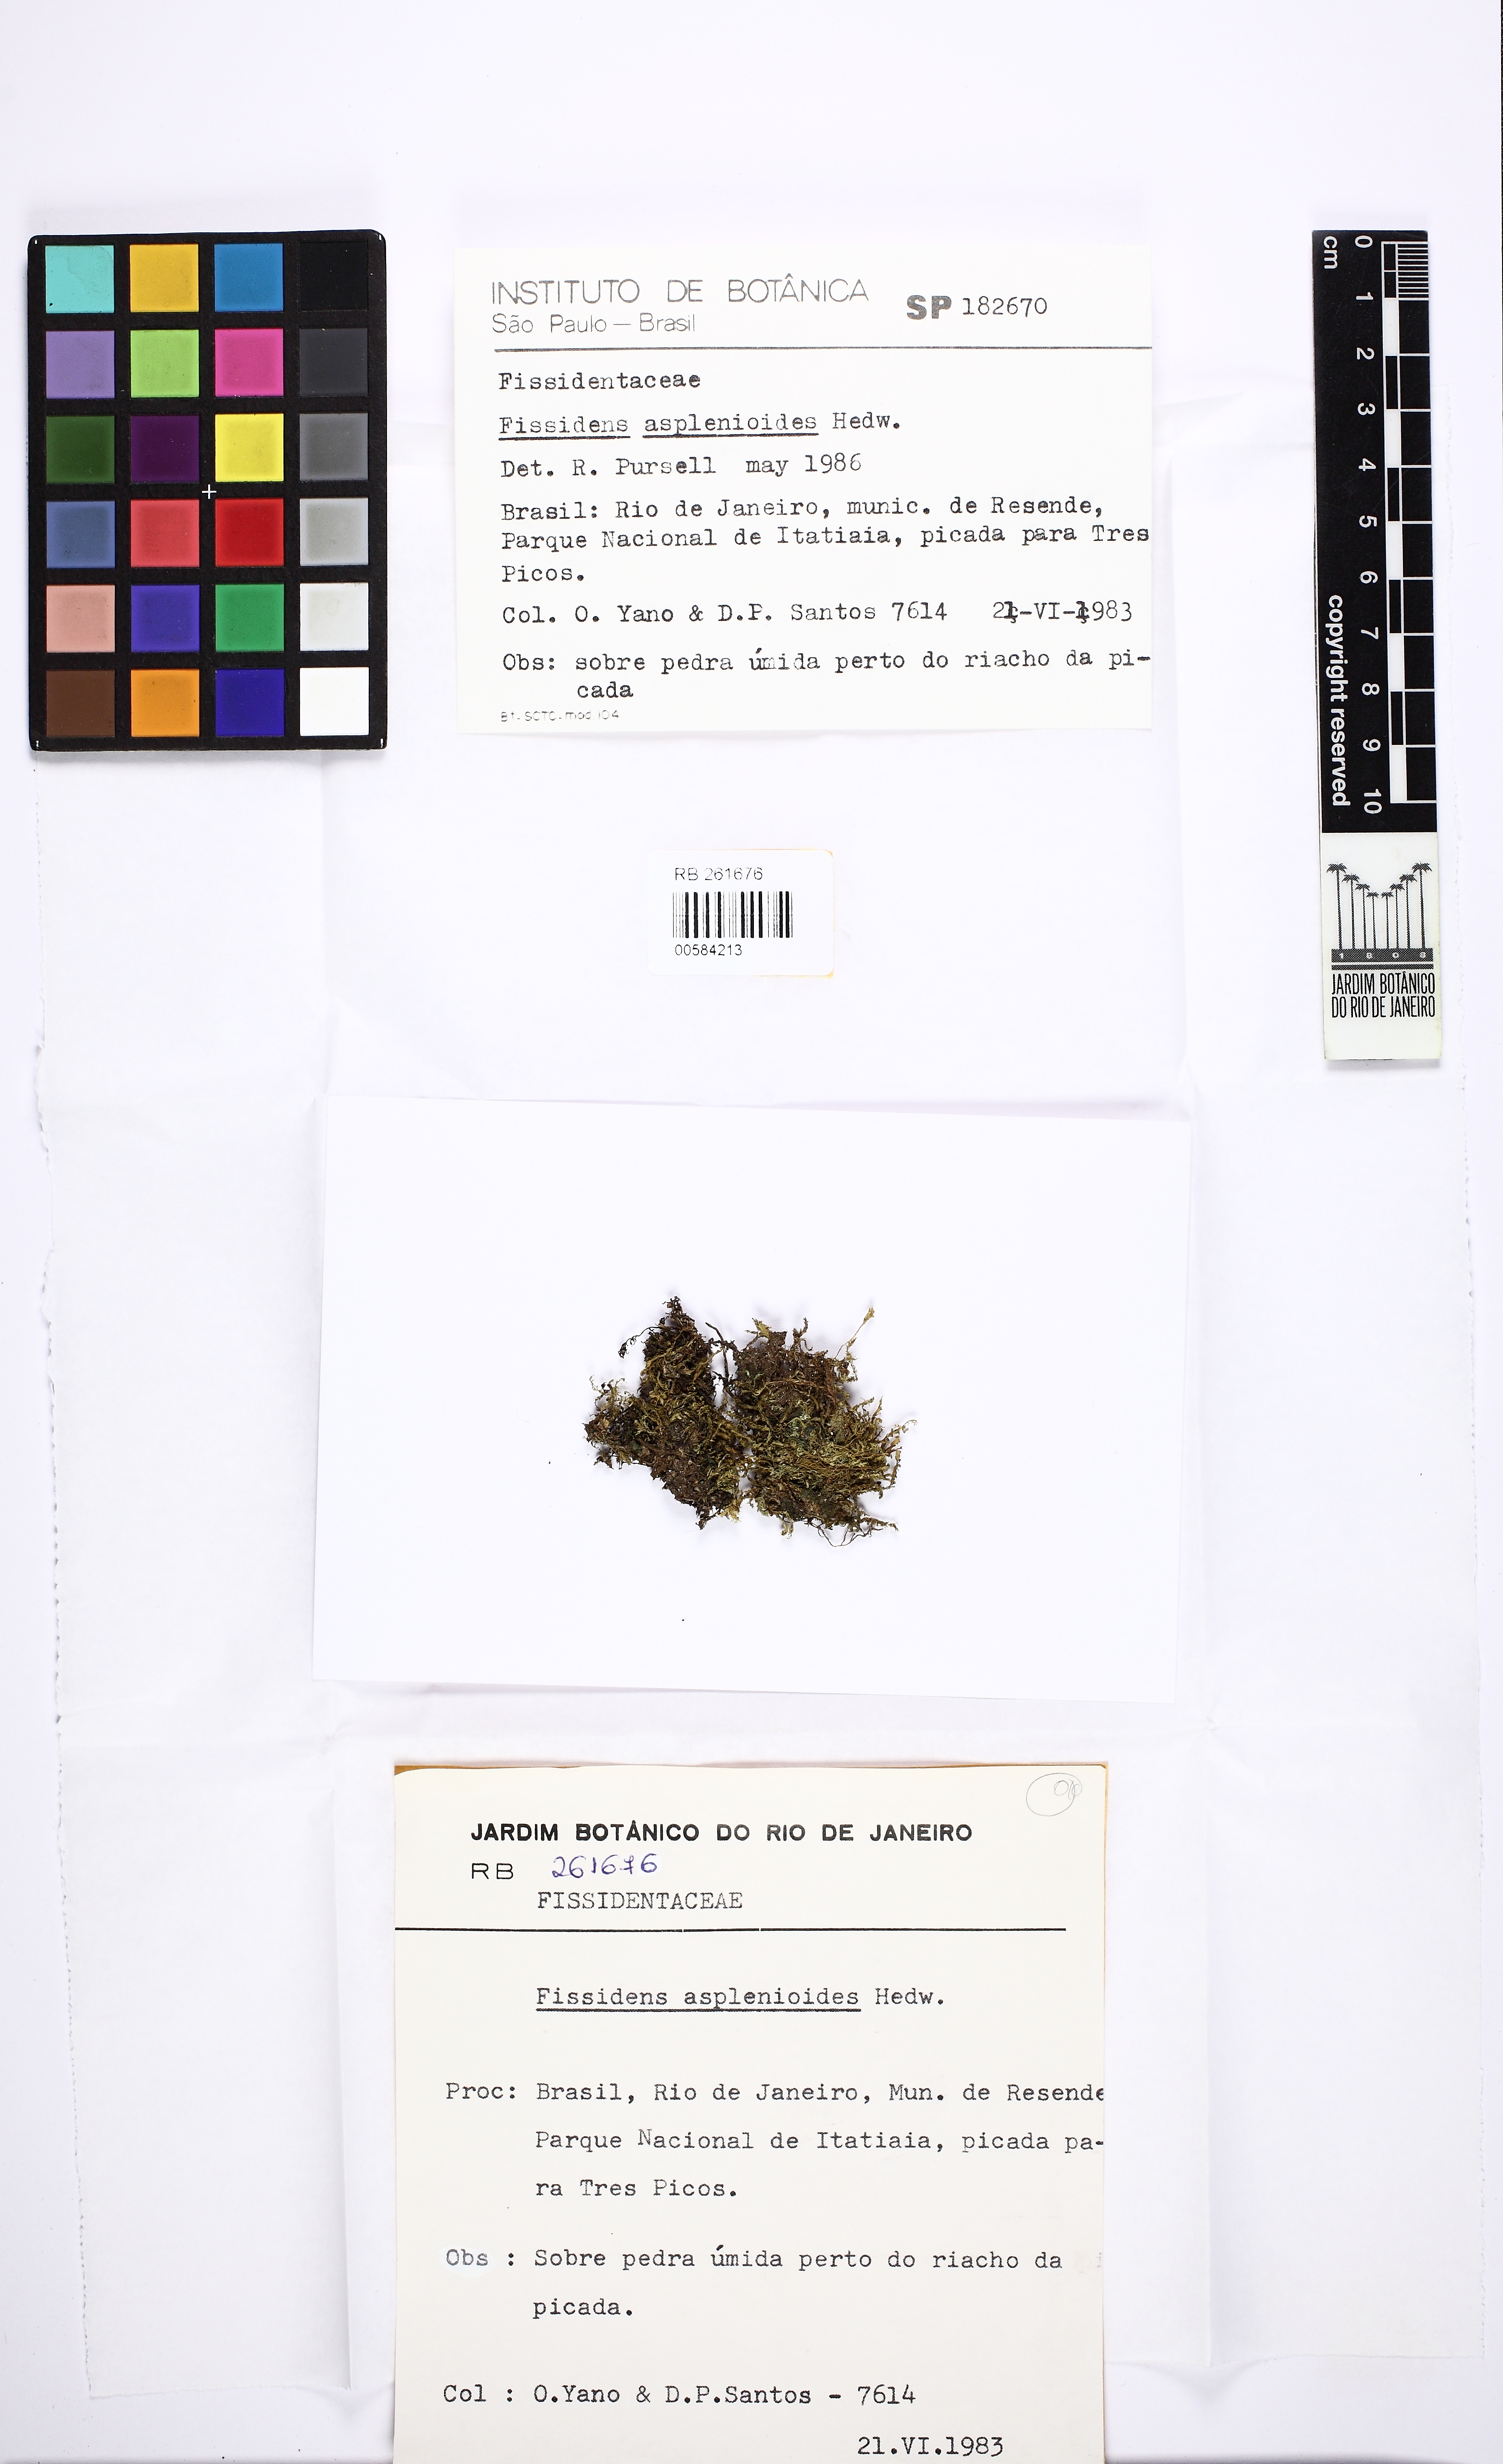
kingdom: Plantae
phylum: Bryophyta
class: Bryopsida
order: Dicranales
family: Fissidentaceae
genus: Fissidens
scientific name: Fissidens asplenioides
